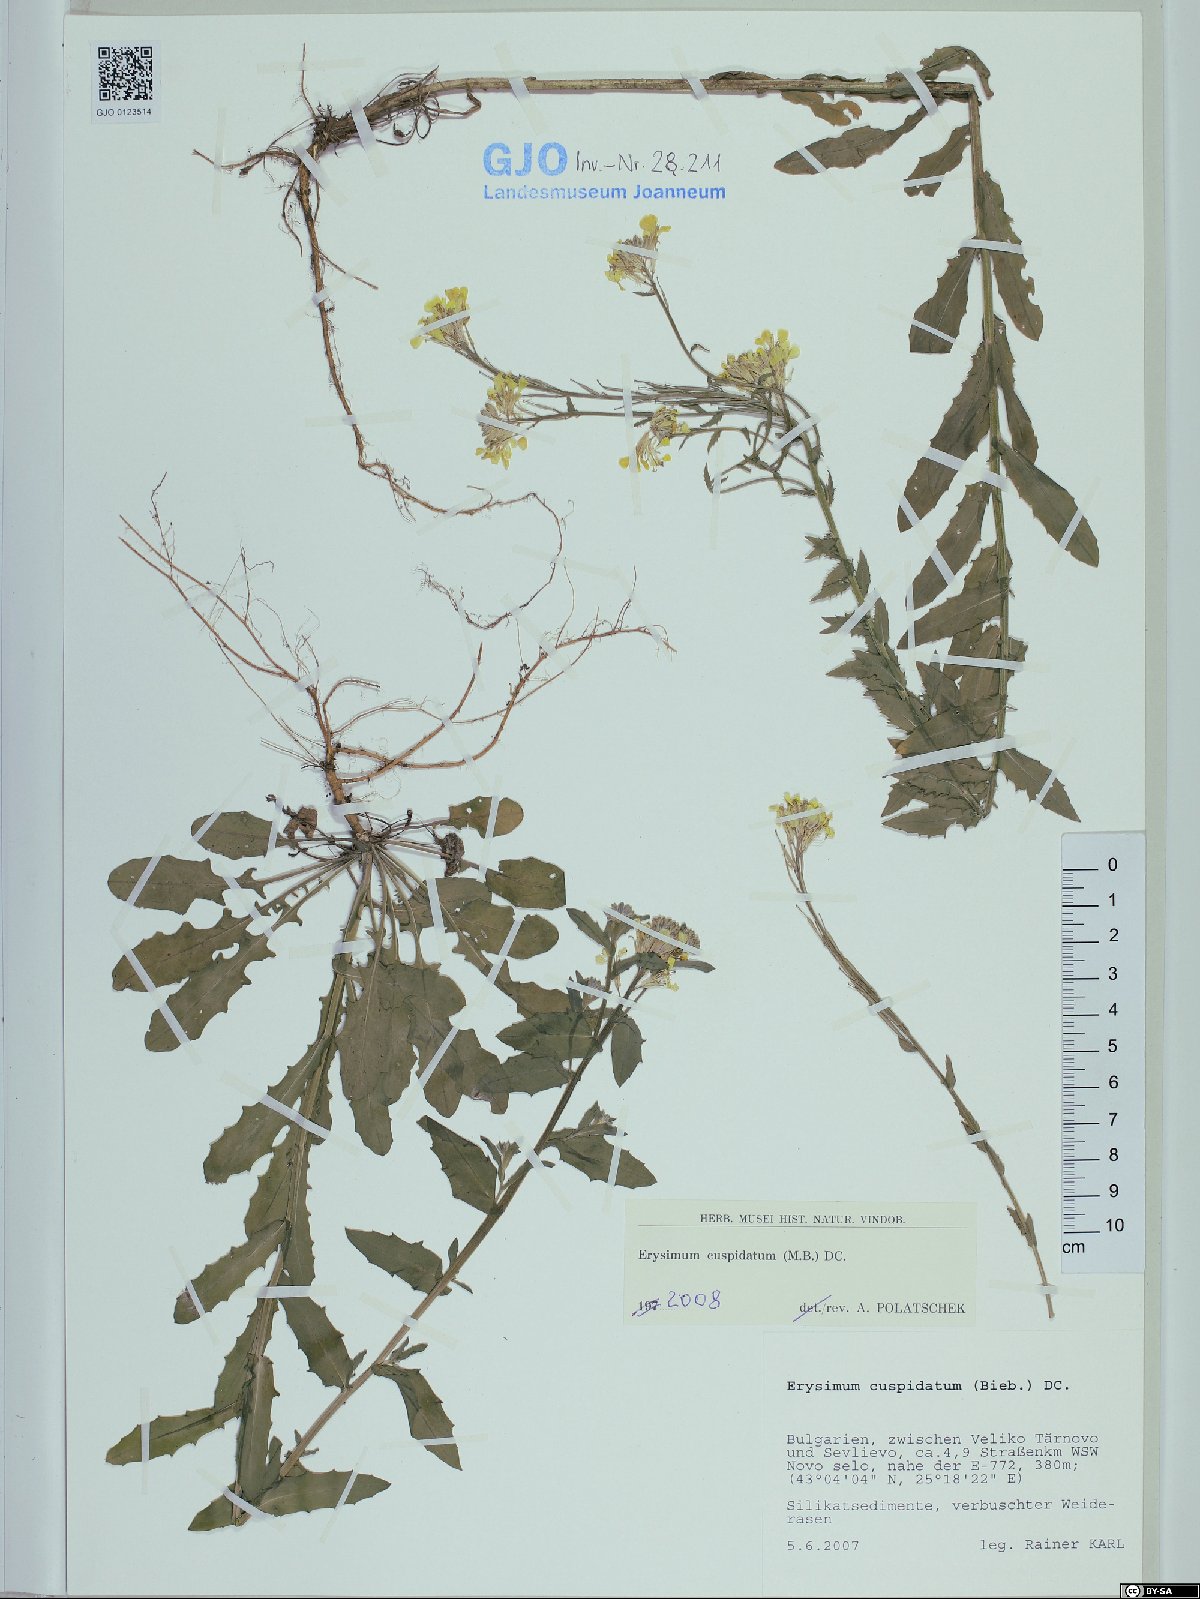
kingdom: Plantae
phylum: Tracheophyta
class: Magnoliopsida
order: Brassicales
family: Brassicaceae
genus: Erysimum
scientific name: Erysimum cuspidatum
